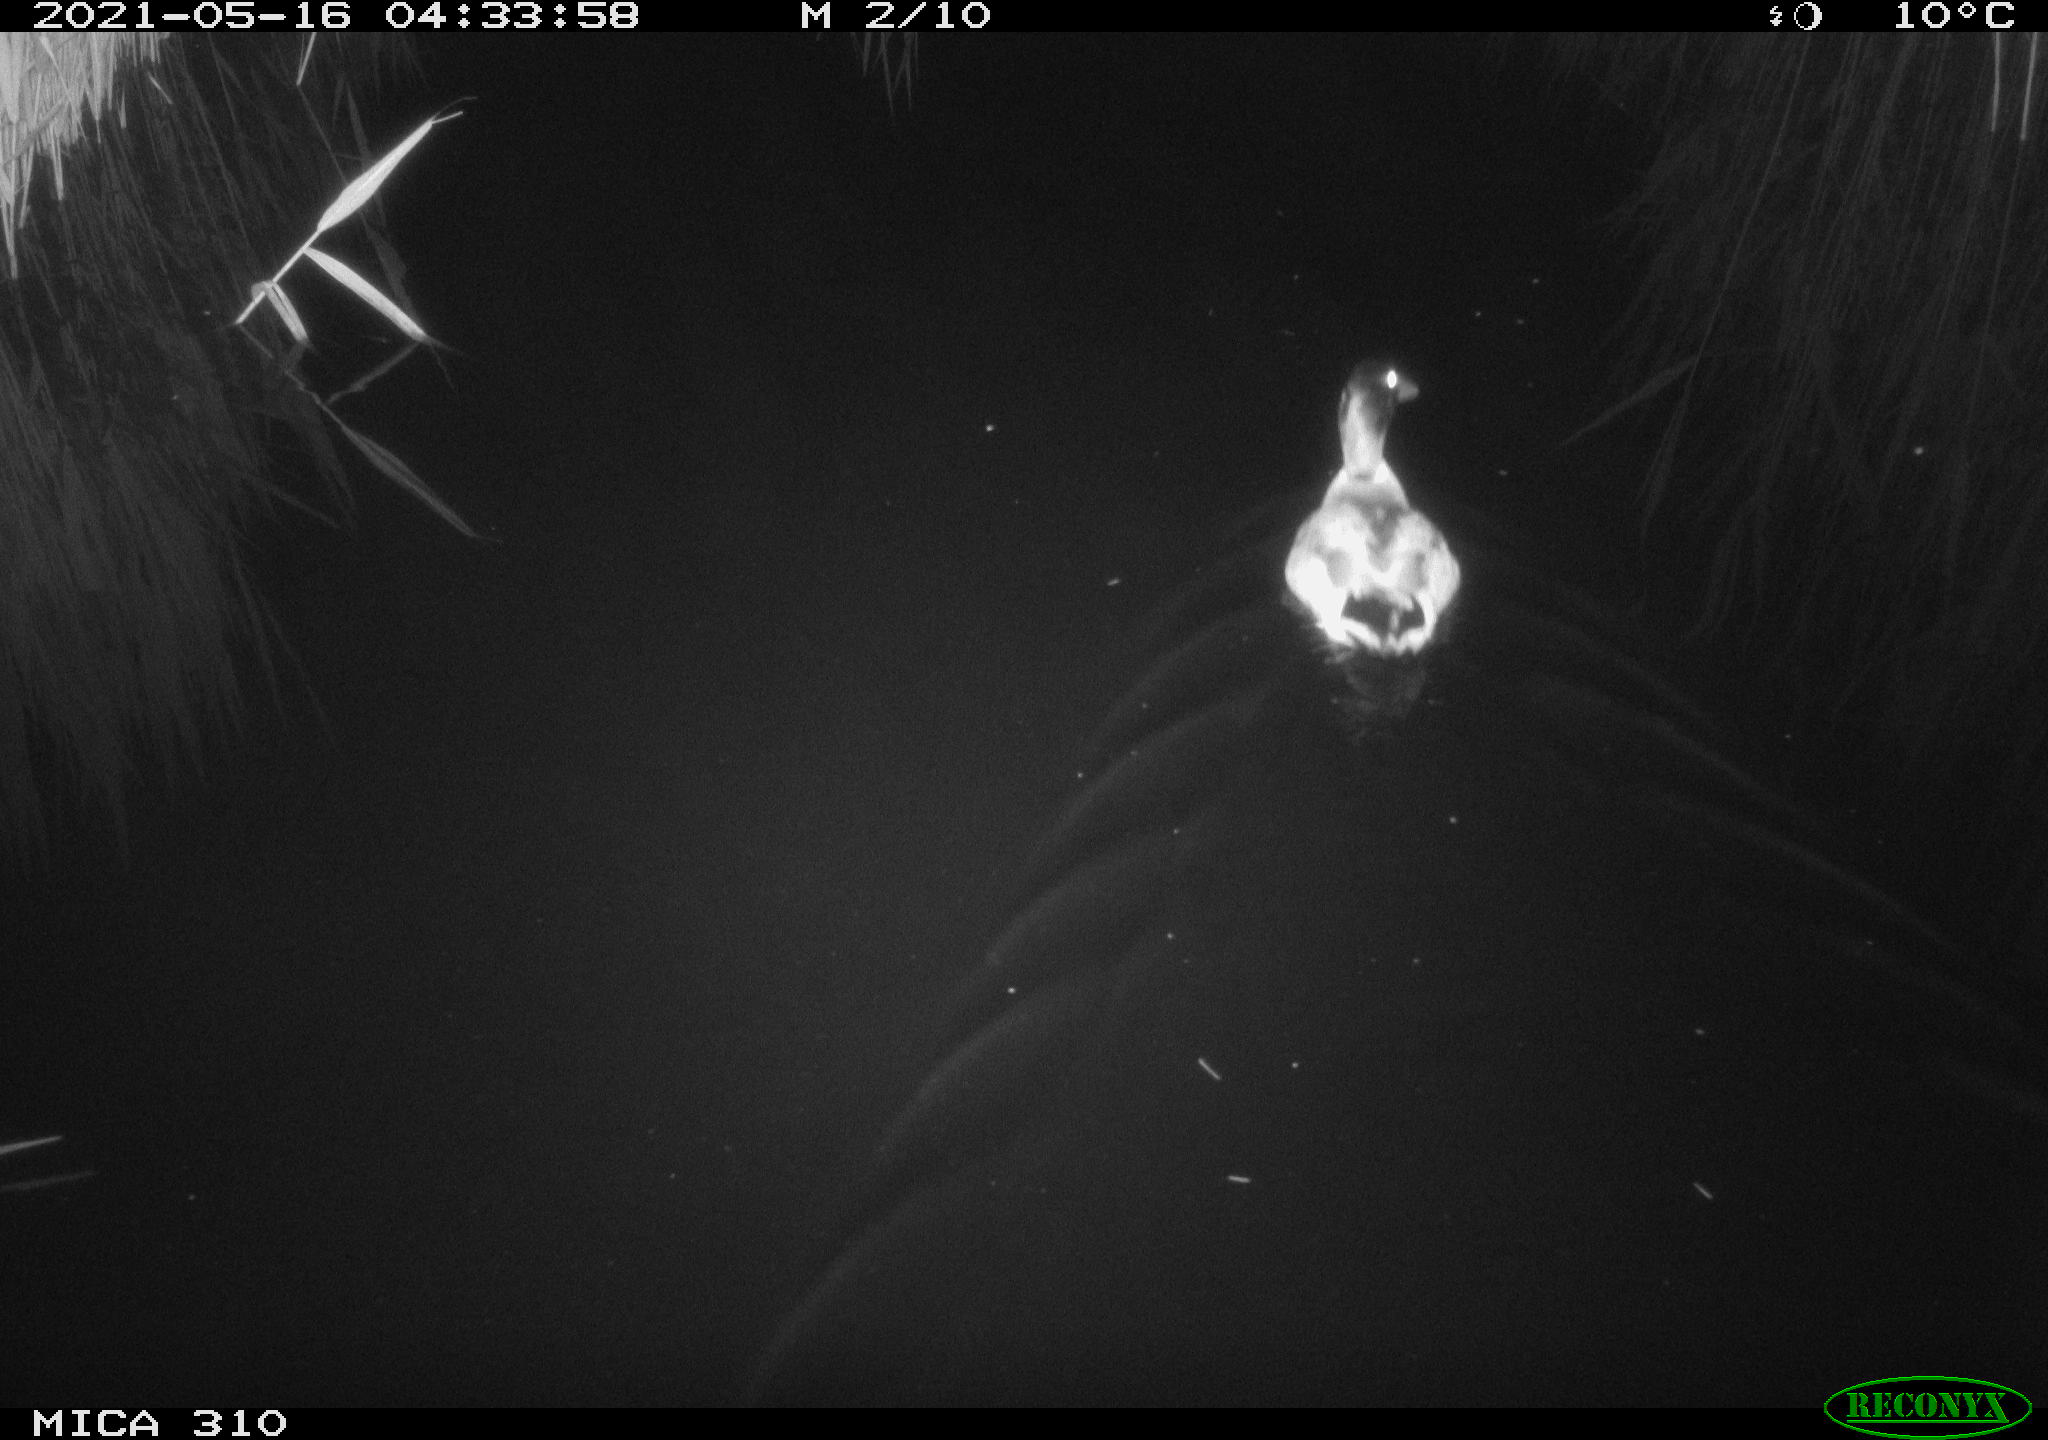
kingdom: Animalia
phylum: Chordata
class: Aves
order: Anseriformes
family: Anatidae
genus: Anas
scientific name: Anas platyrhynchos
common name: Mallard
